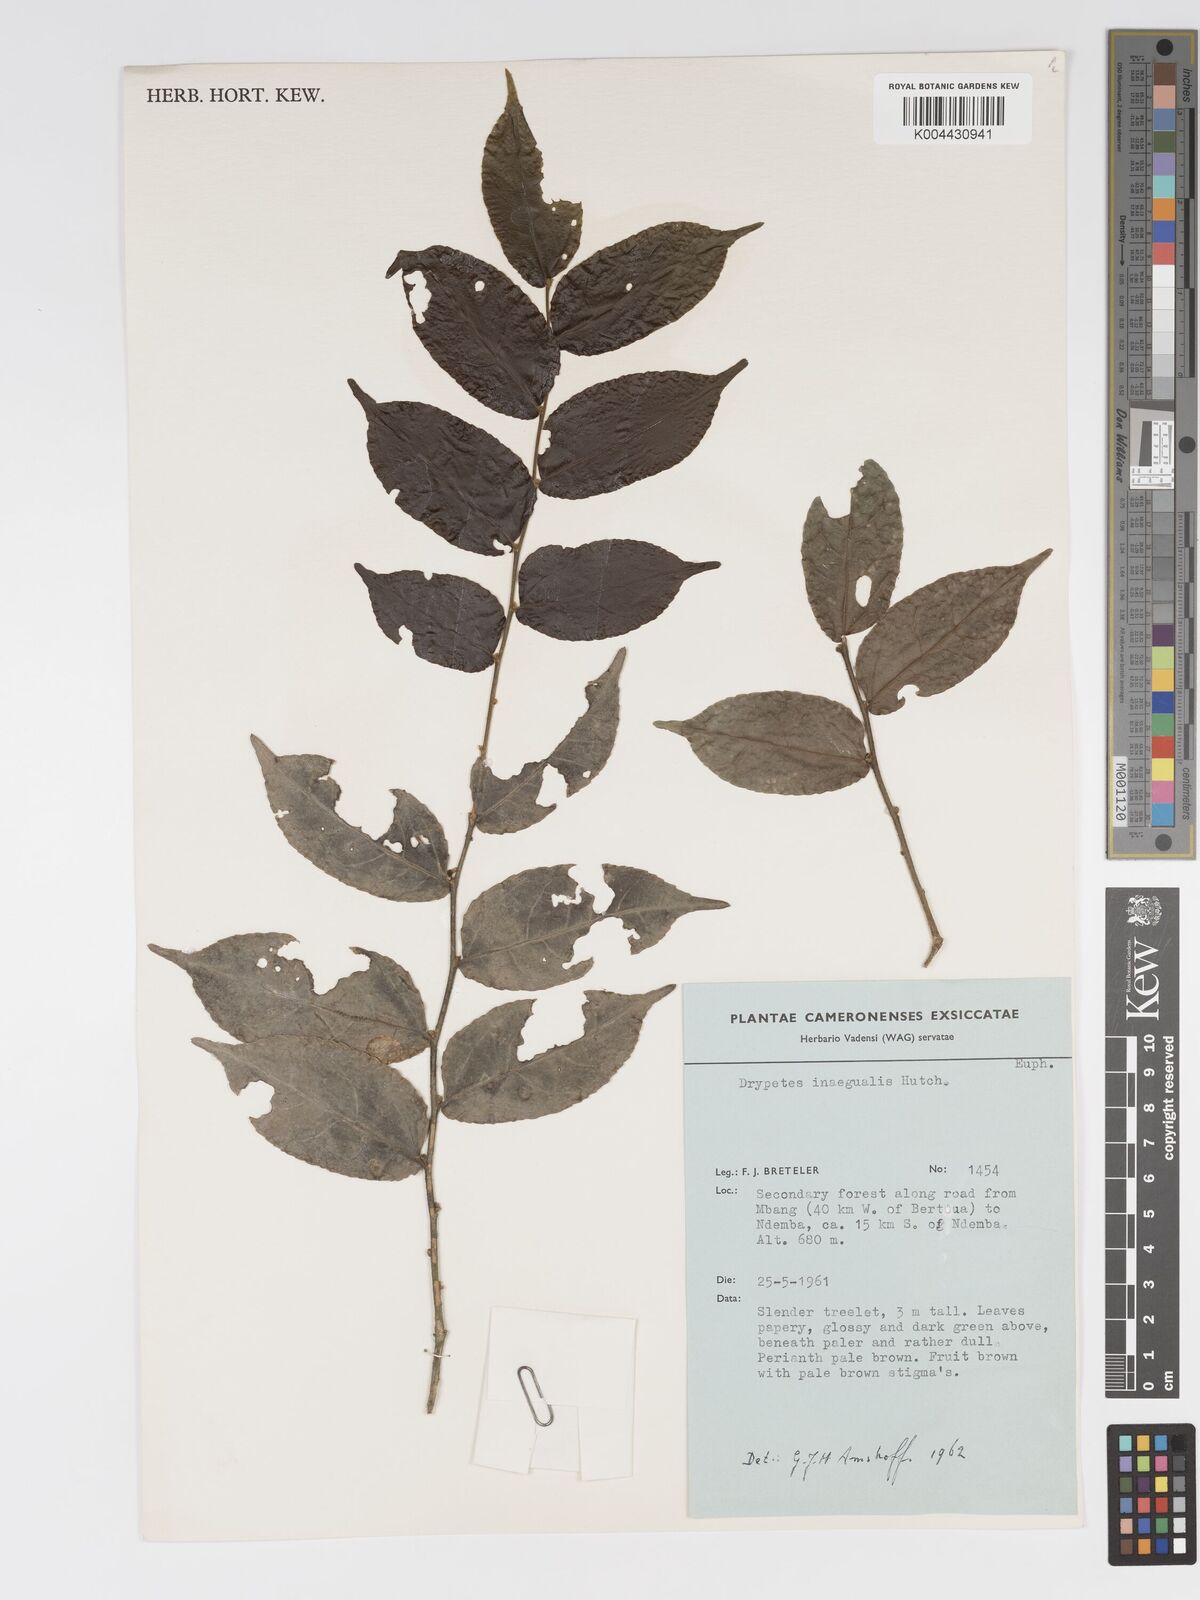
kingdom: Plantae
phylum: Tracheophyta
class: Magnoliopsida
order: Malpighiales
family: Putranjivaceae
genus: Drypetes
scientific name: Drypetes inaequalis
